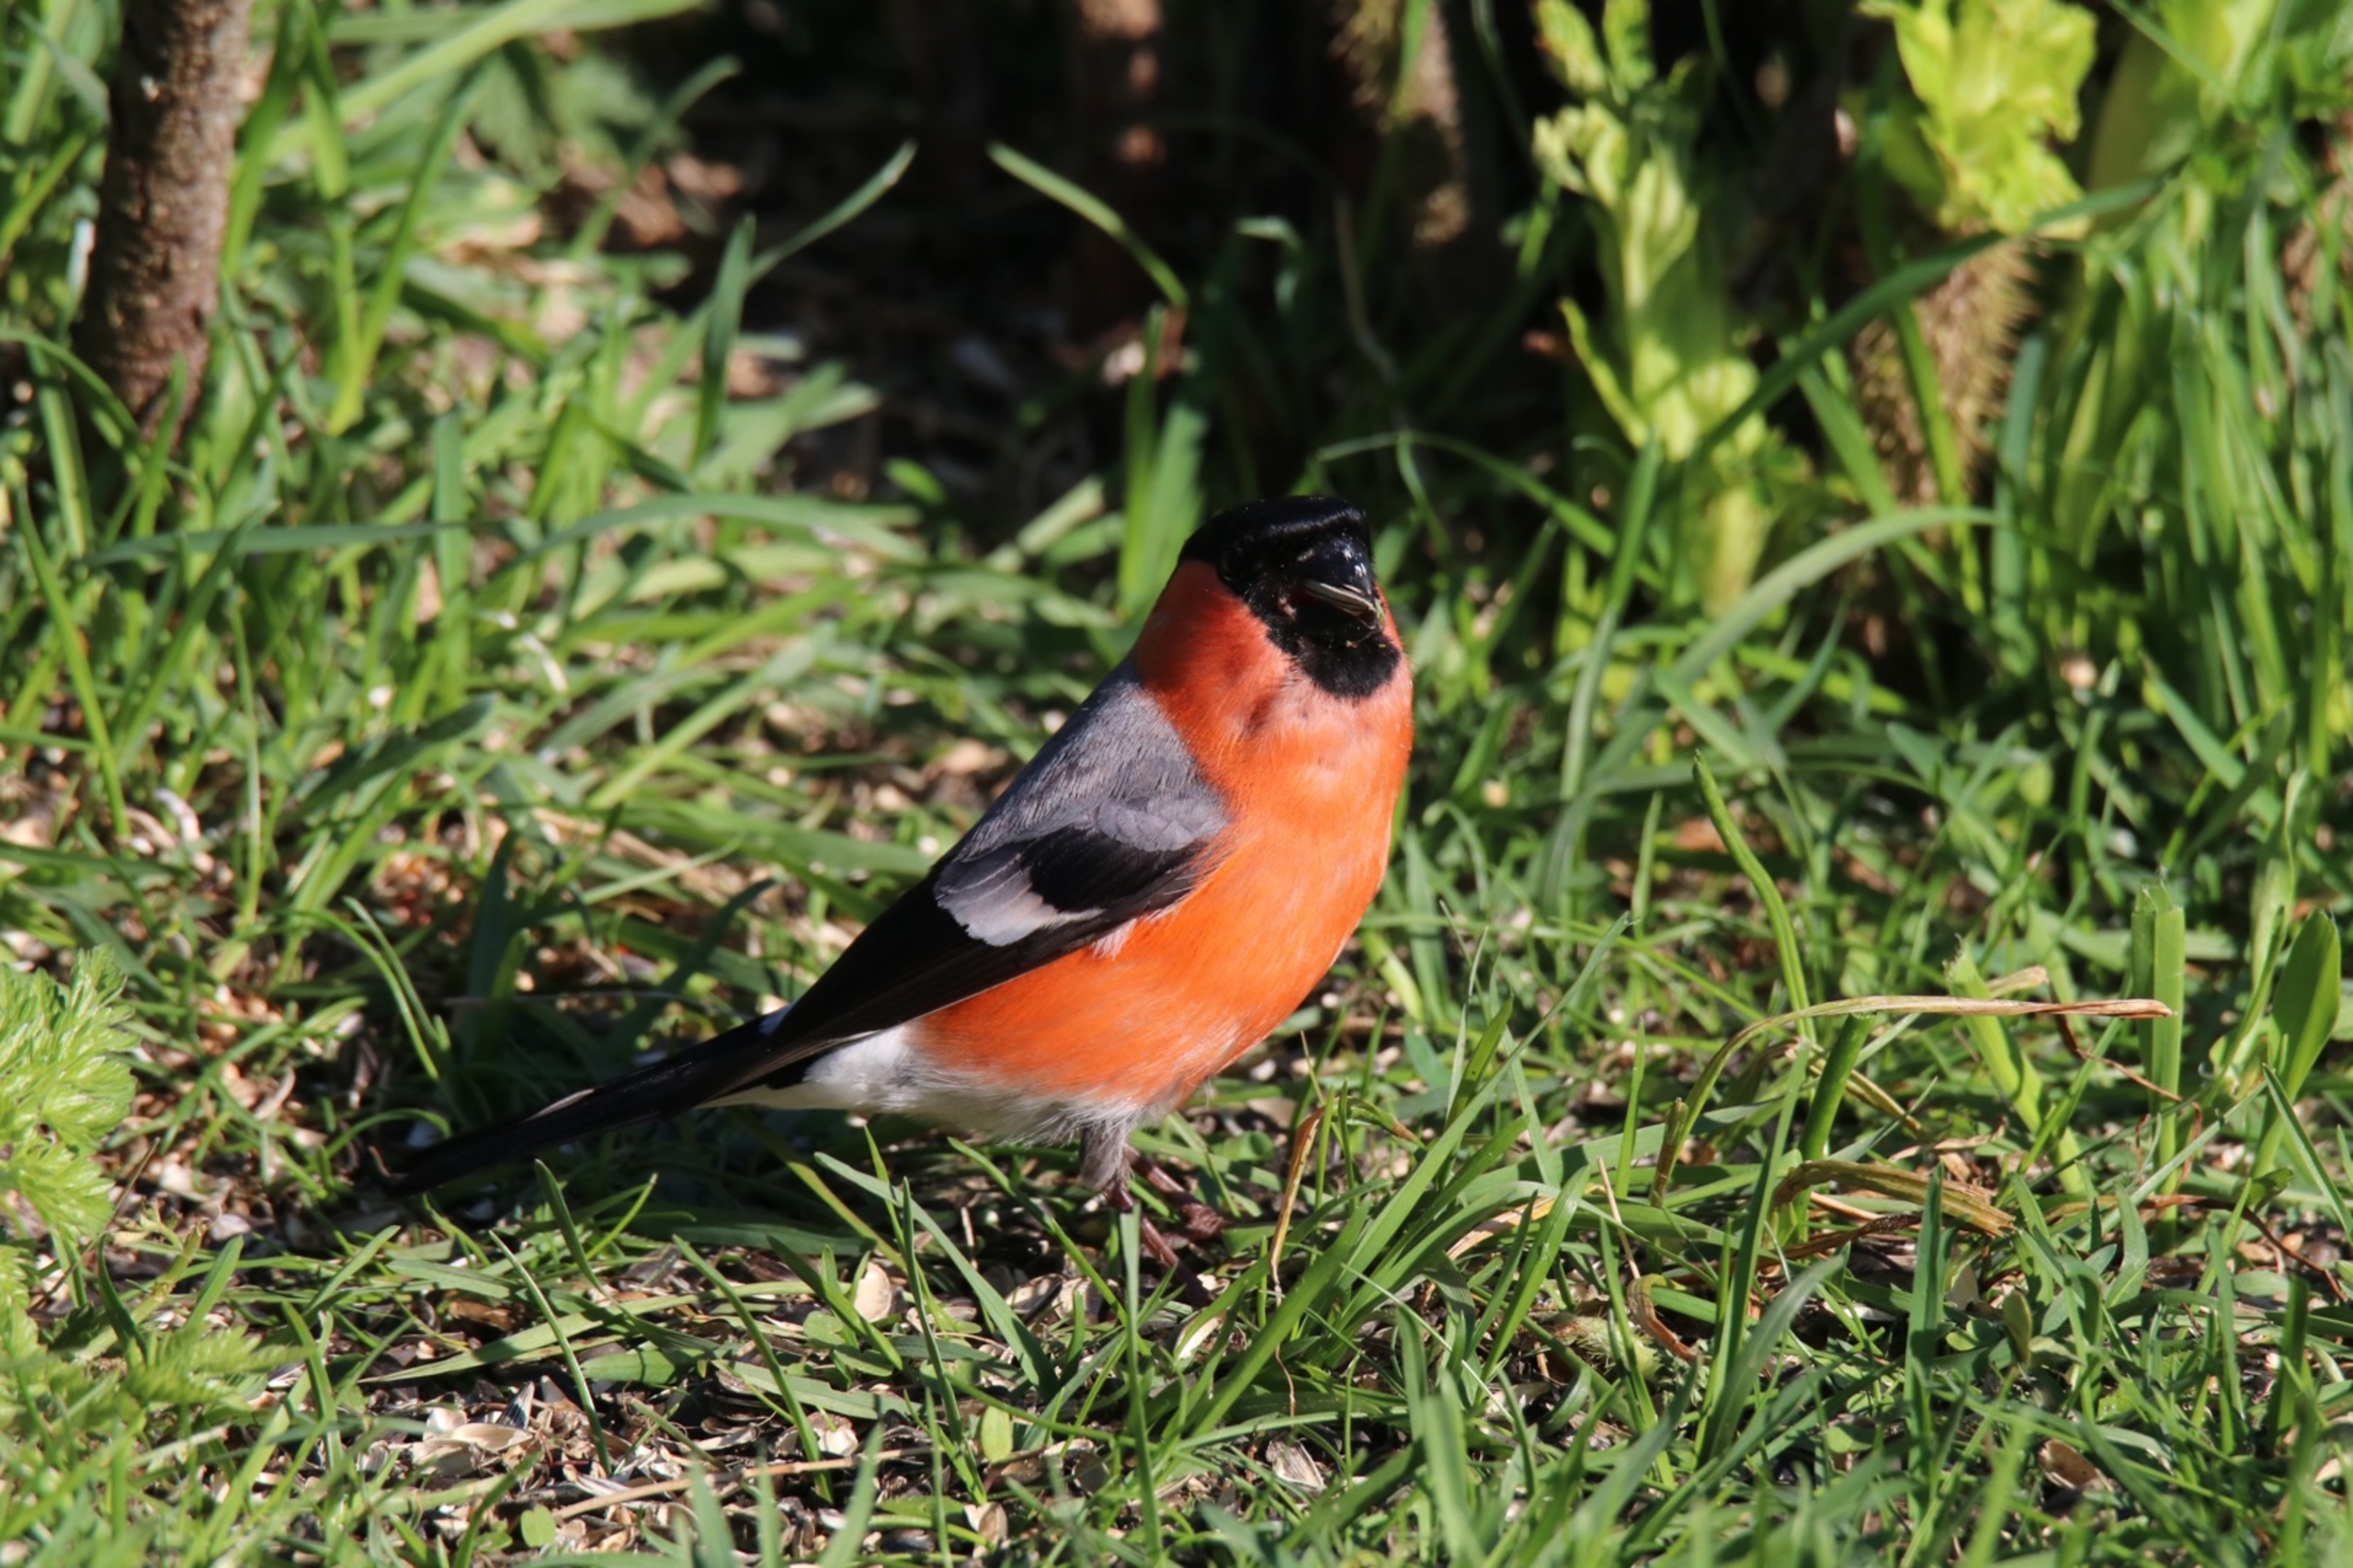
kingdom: Animalia
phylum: Chordata
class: Aves
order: Passeriformes
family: Fringillidae
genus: Pyrrhula
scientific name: Pyrrhula pyrrhula
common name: Dompap
